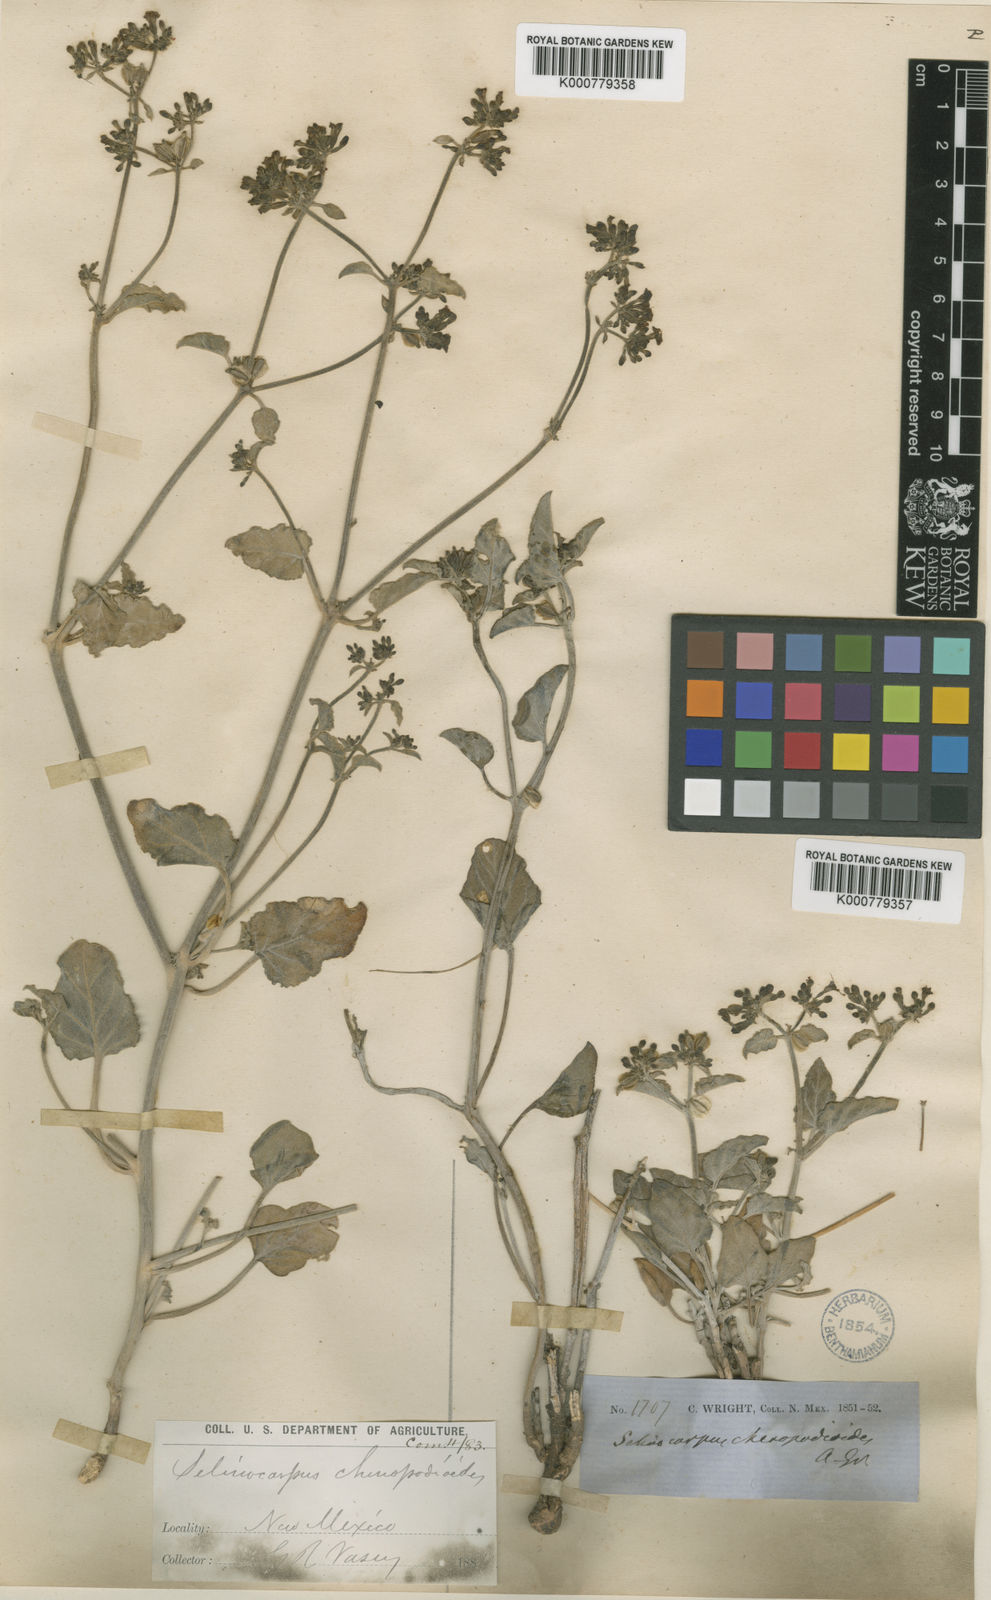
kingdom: Plantae
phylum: Tracheophyta
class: Magnoliopsida
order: Caryophyllales
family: Nyctaginaceae
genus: Acleisanthes
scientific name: Acleisanthes chenopodioides
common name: Goosefoot moonpod
